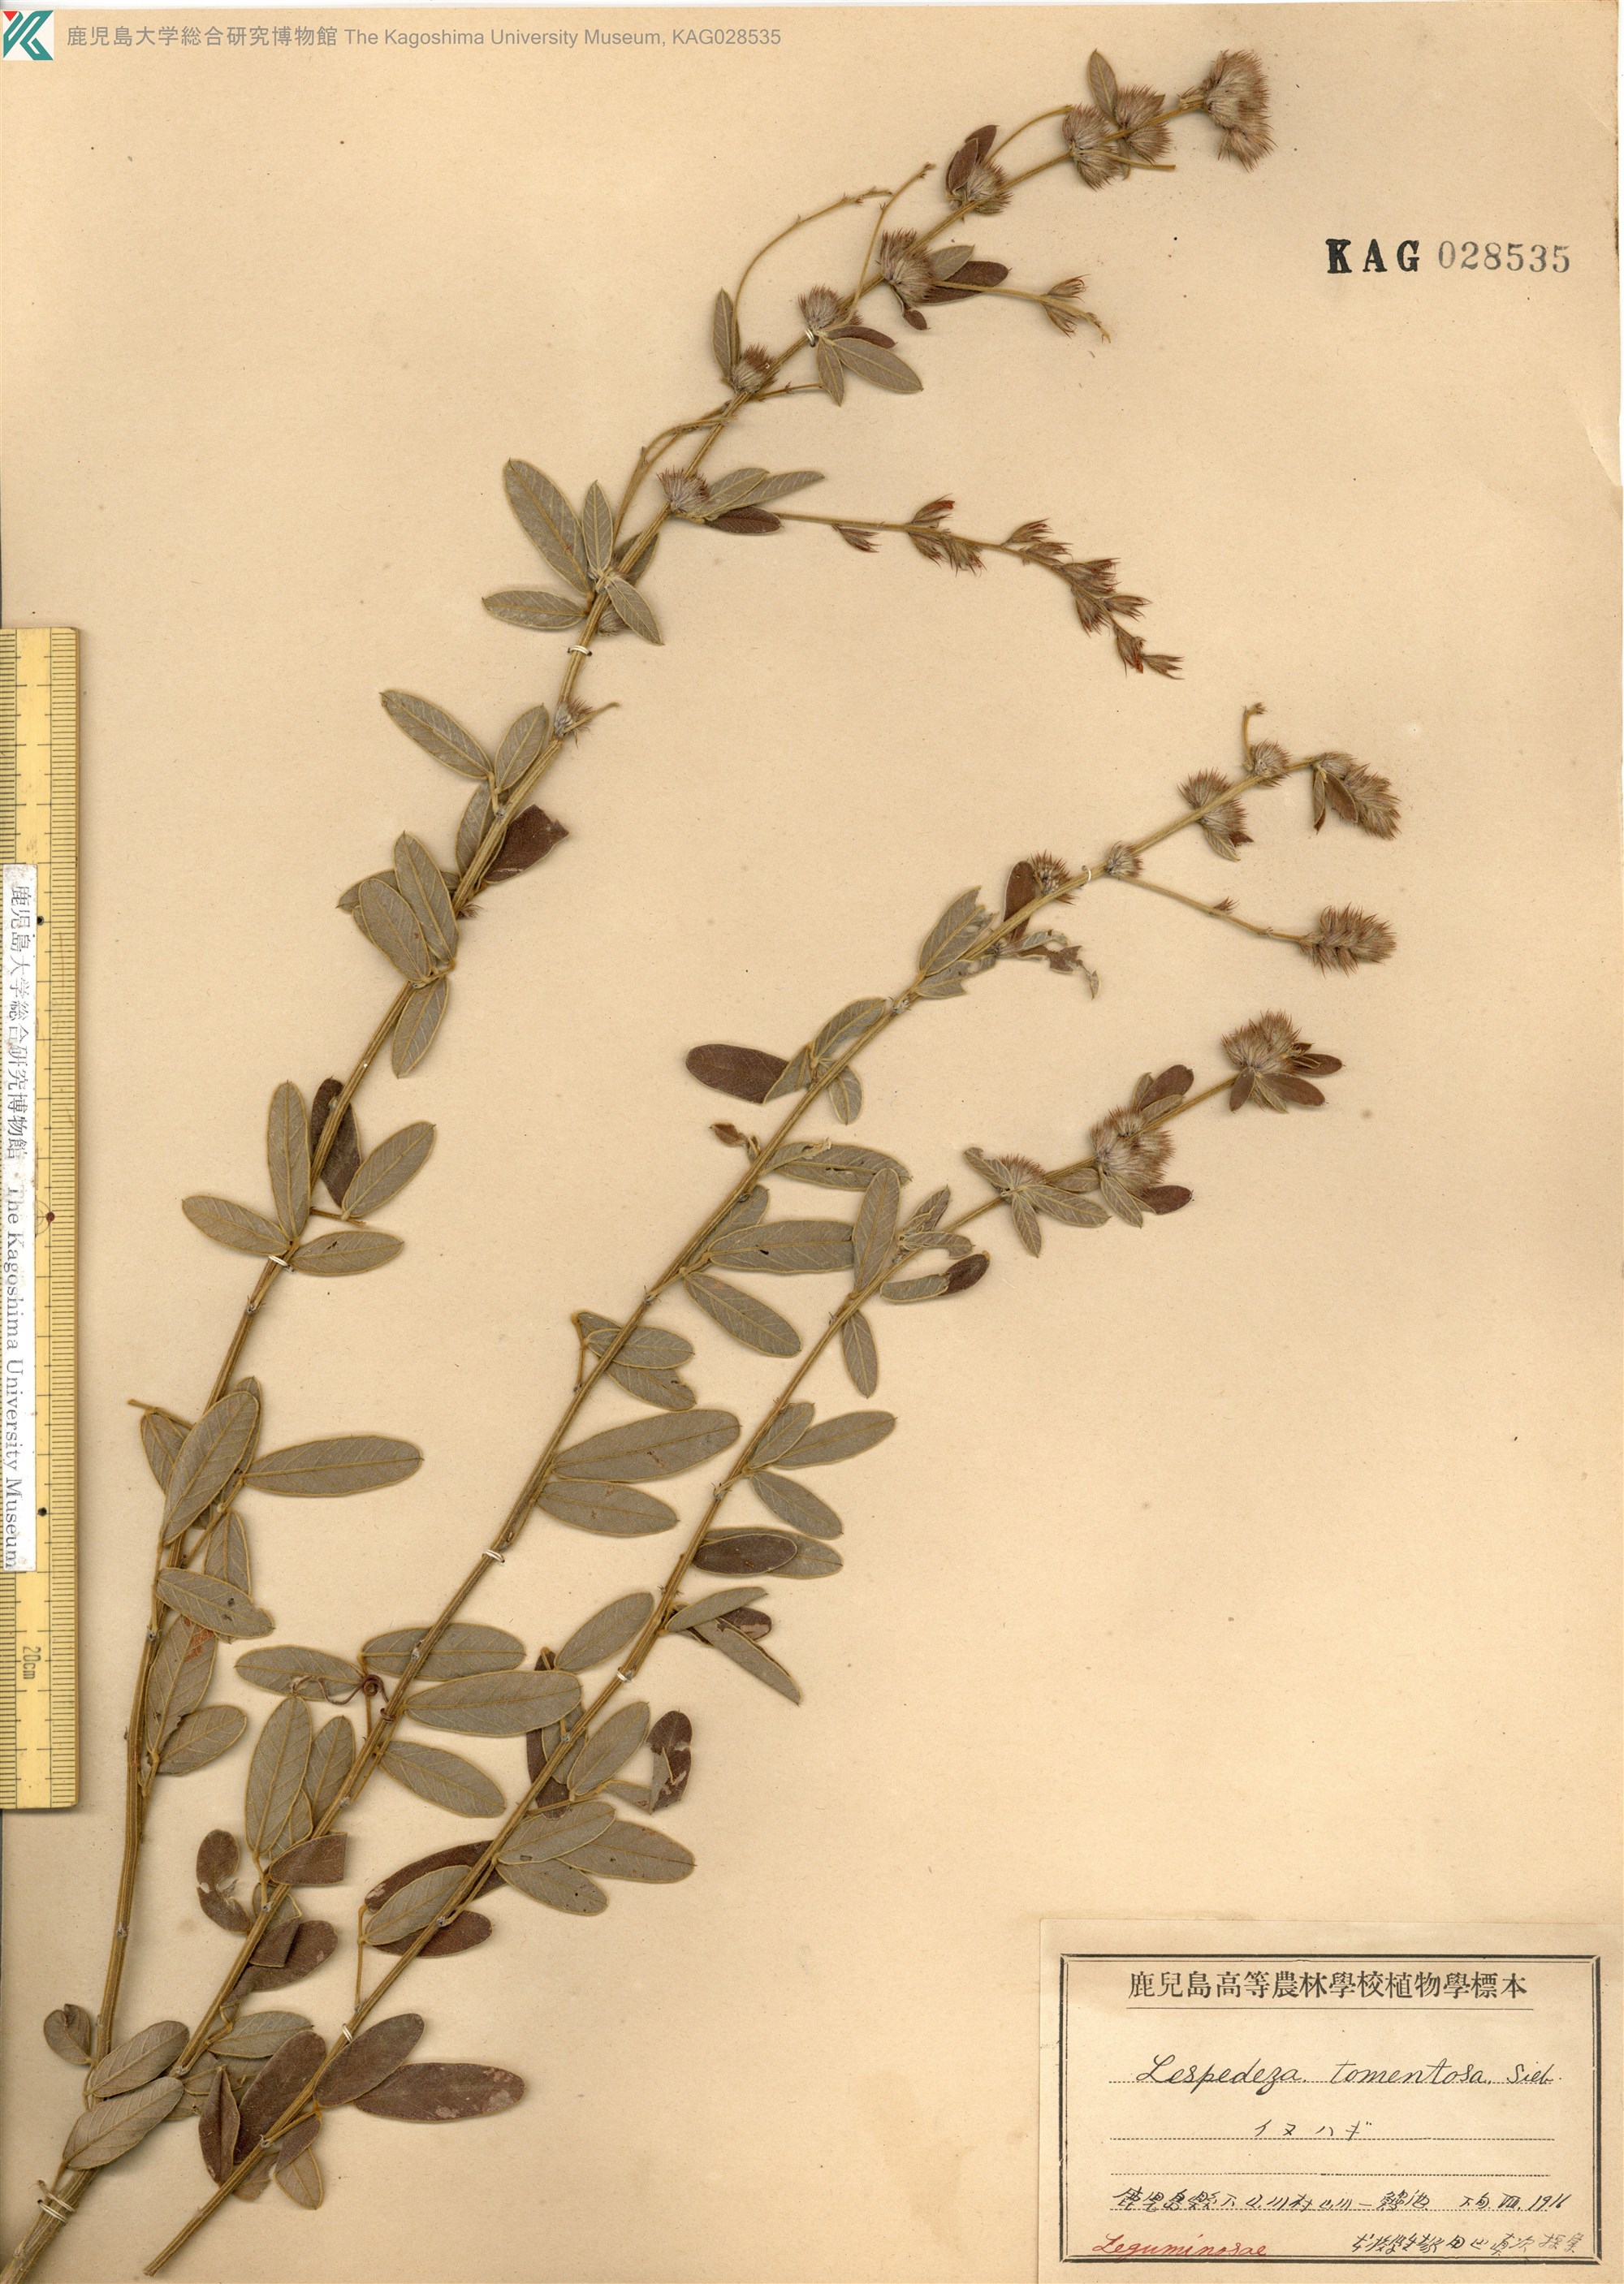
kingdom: Plantae
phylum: Tracheophyta
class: Magnoliopsida
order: Fabales
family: Fabaceae
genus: Lespedeza
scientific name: Lespedeza tomentosa
